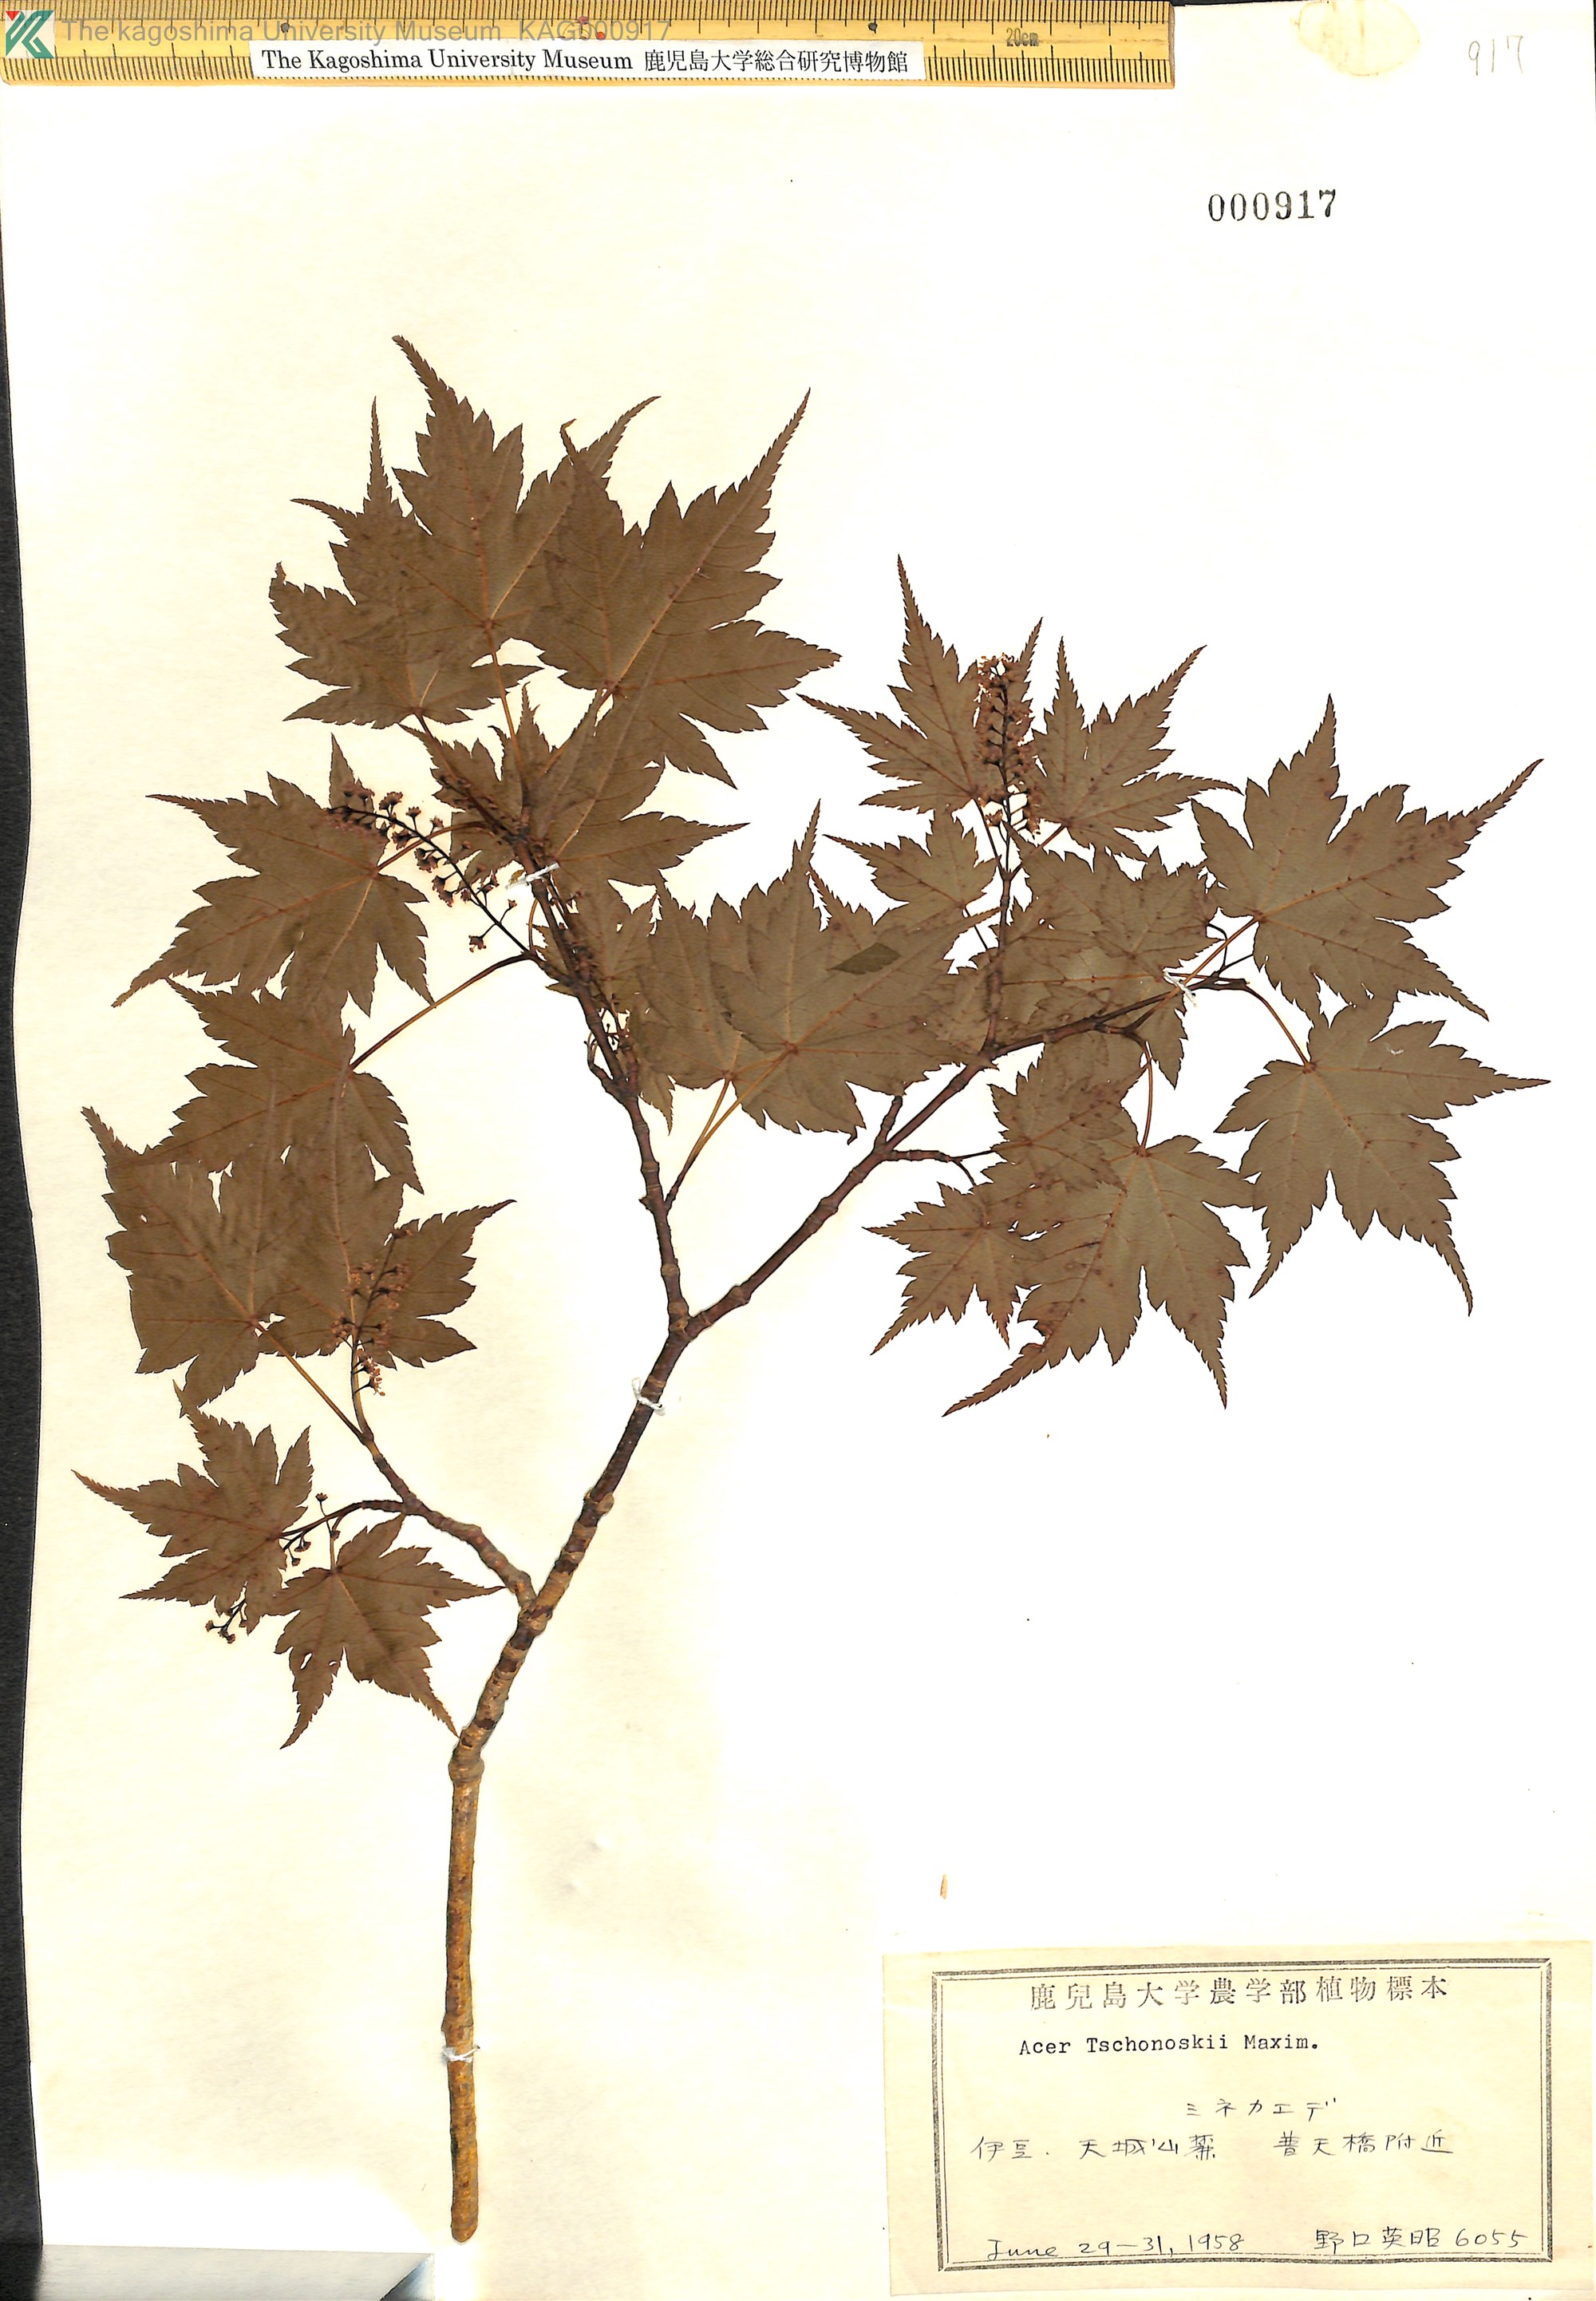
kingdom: Plantae
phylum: Tracheophyta
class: Magnoliopsida
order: Sapindales
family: Sapindaceae
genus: Acer
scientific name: Acer tschonoskii
